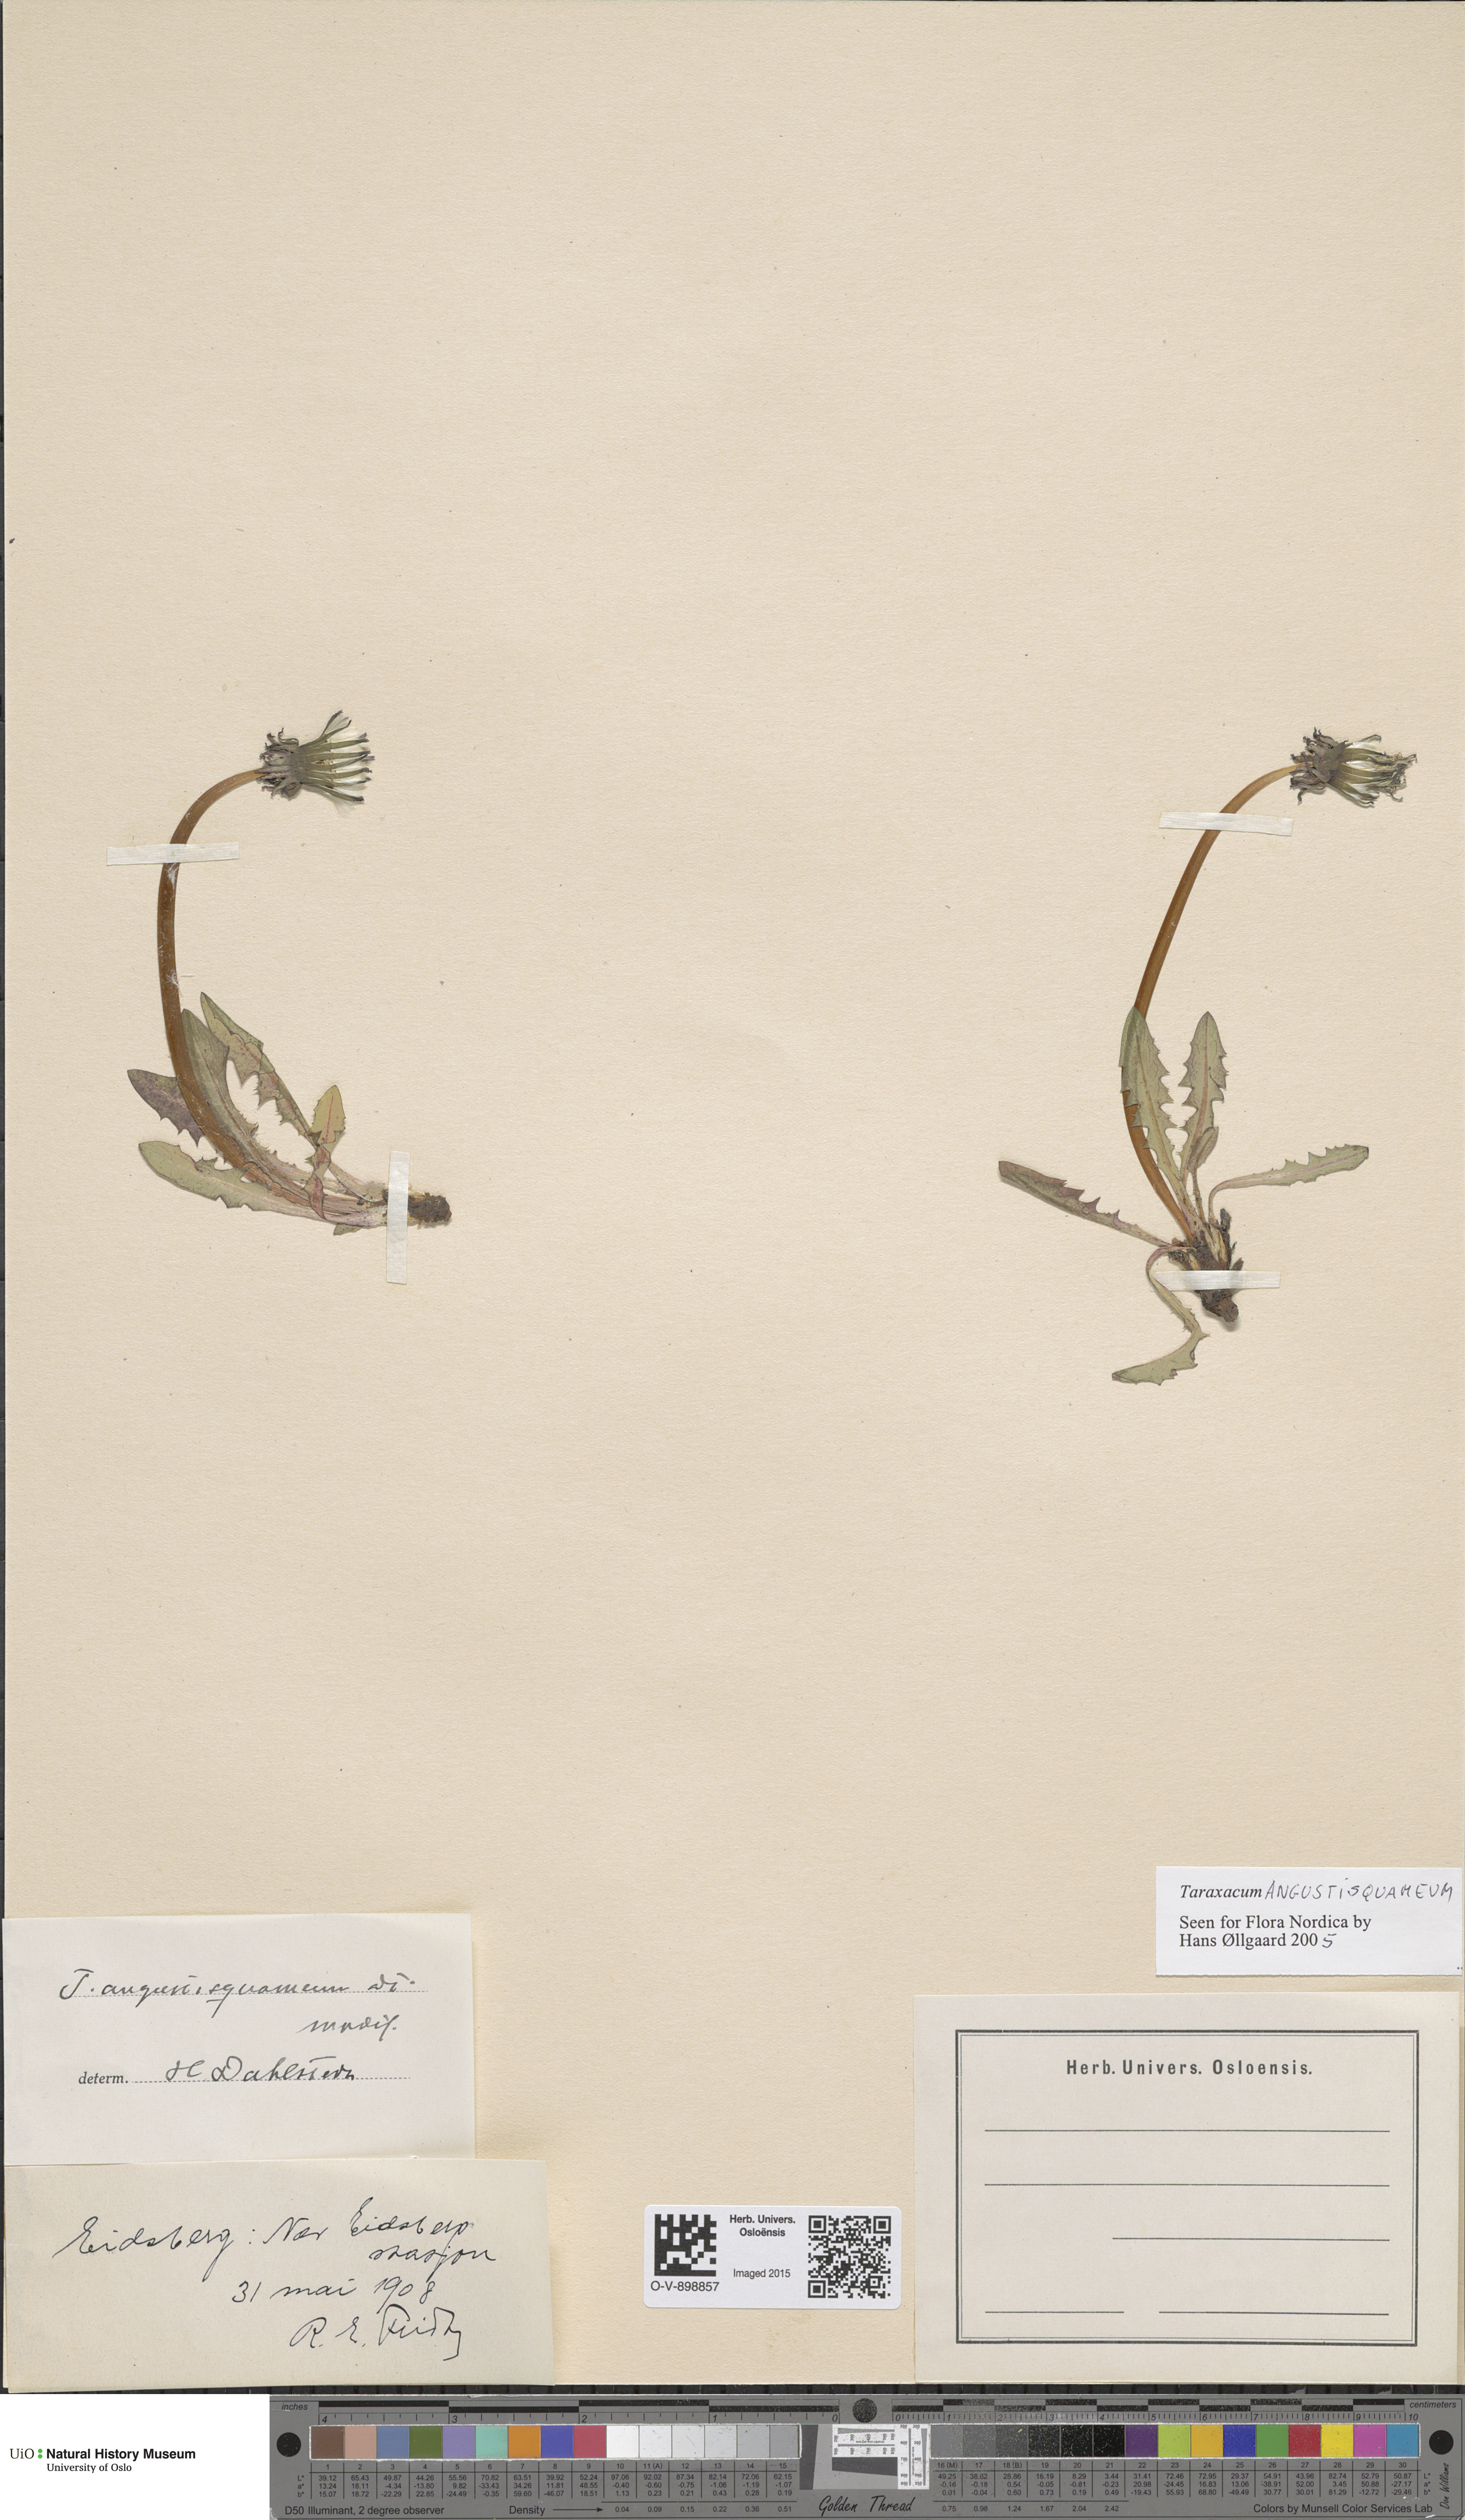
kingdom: Plantae
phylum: Tracheophyta
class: Magnoliopsida
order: Asterales
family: Asteraceae
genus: Taraxacum
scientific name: Taraxacum angustisquameum
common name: Multilobed dandelion
